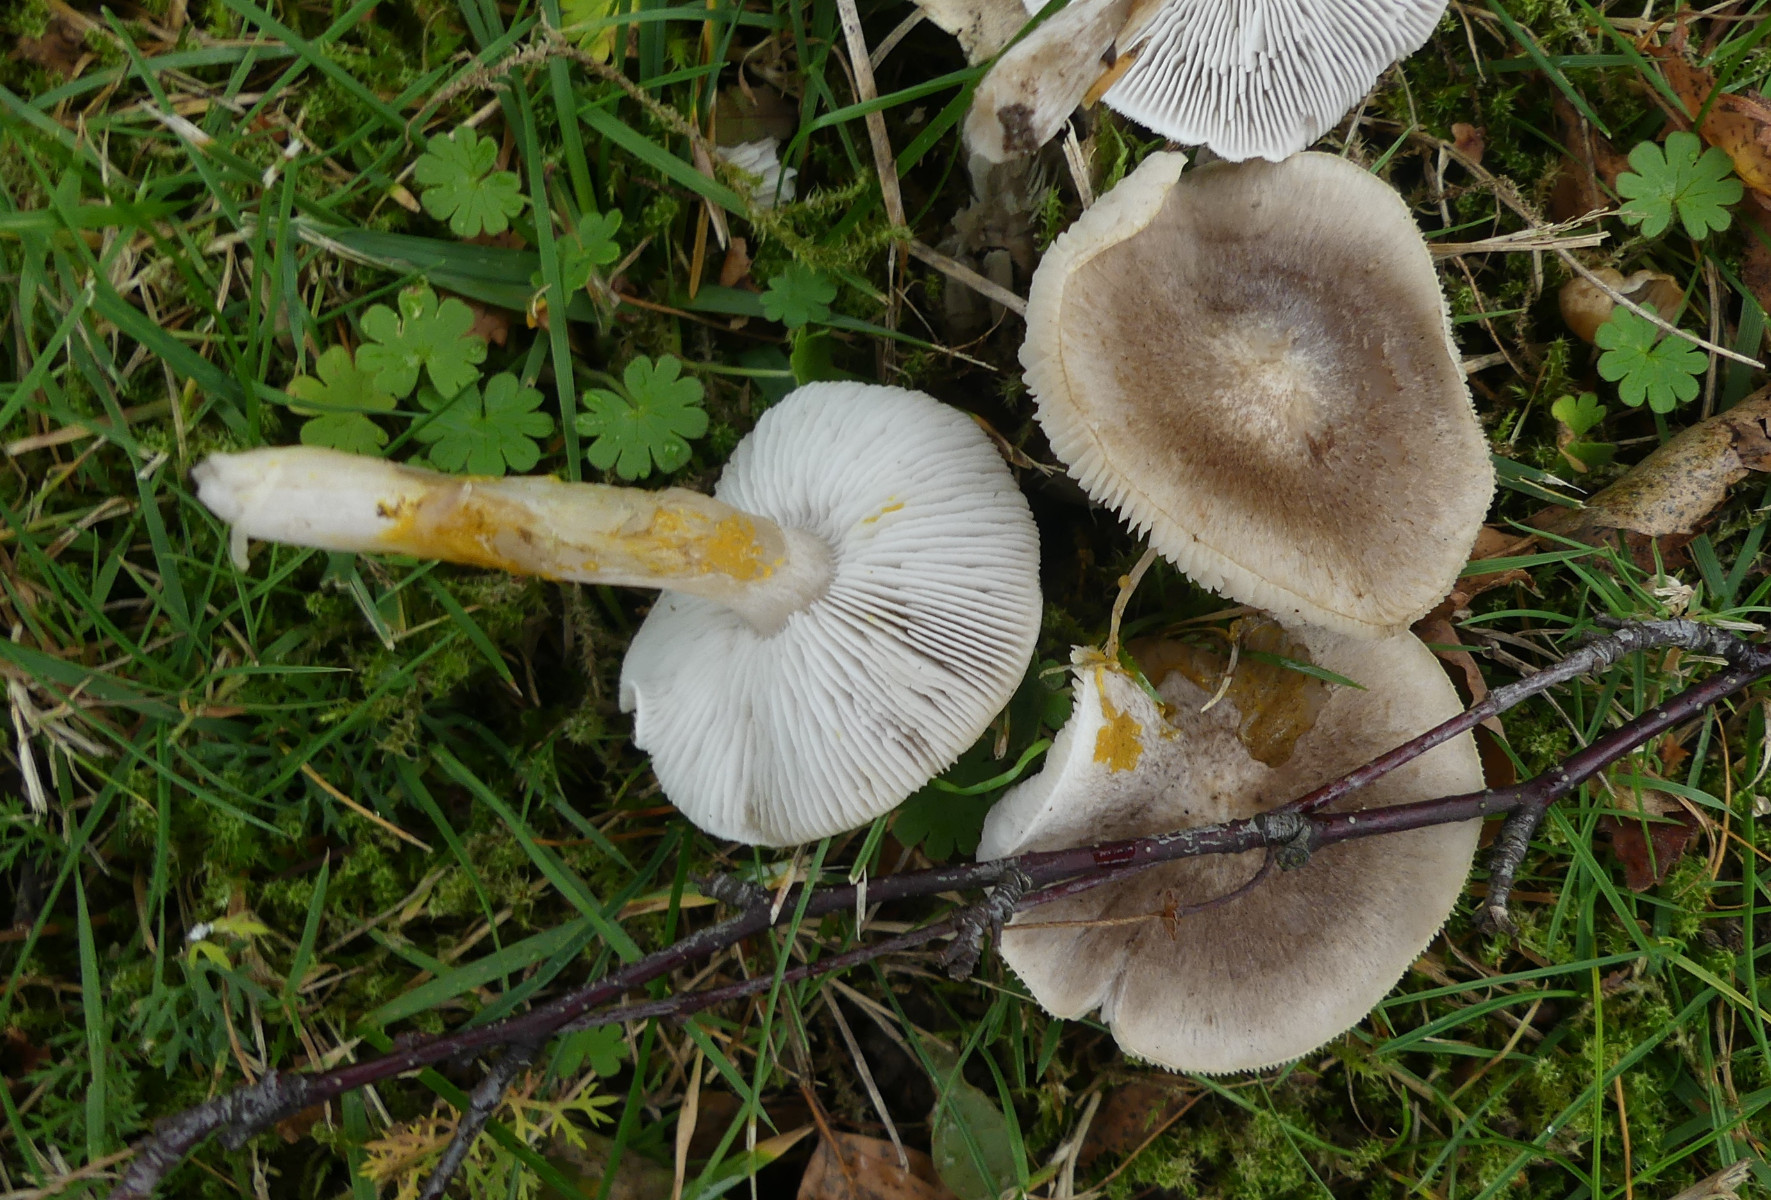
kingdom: Fungi
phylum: Basidiomycota
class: Agaricomycetes
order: Agaricales
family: Tricholomataceae
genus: Tricholoma
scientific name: Tricholoma scalpturatum
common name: gulplettet ridderhat
